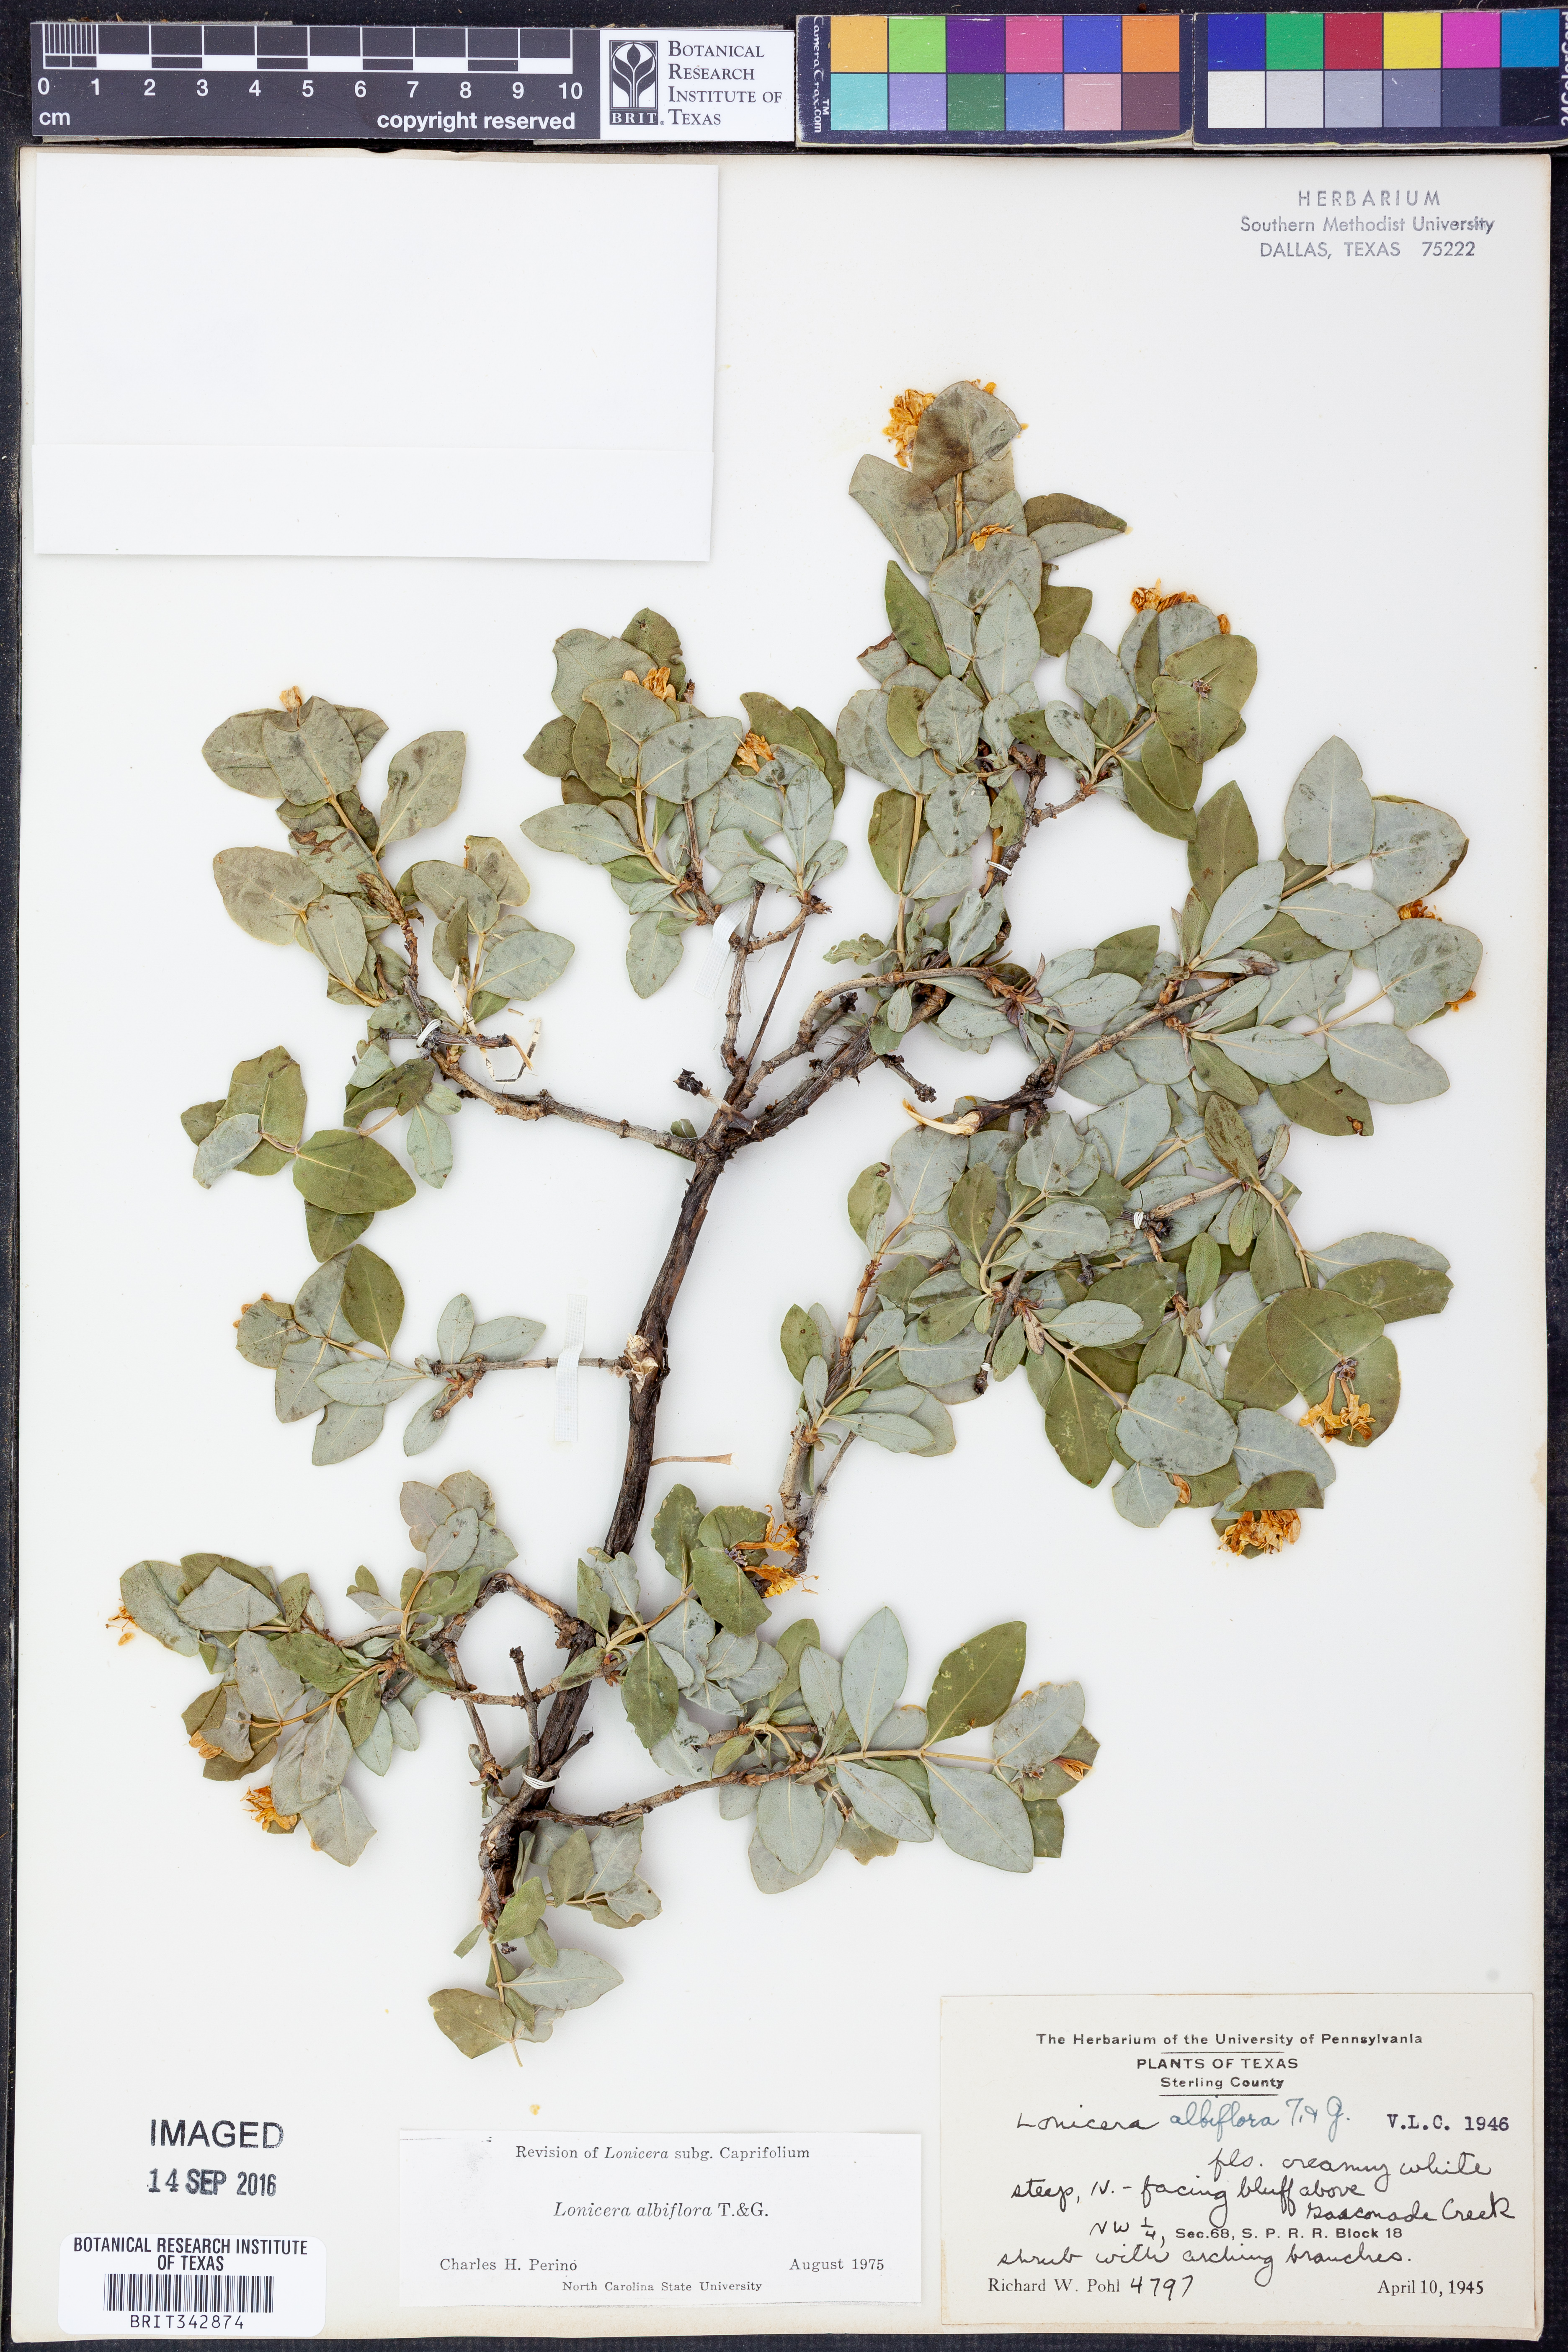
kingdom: Plantae
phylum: Tracheophyta
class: Magnoliopsida
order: Dipsacales
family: Caprifoliaceae
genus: Lonicera
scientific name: Lonicera albiflora
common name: White honeysuckle
